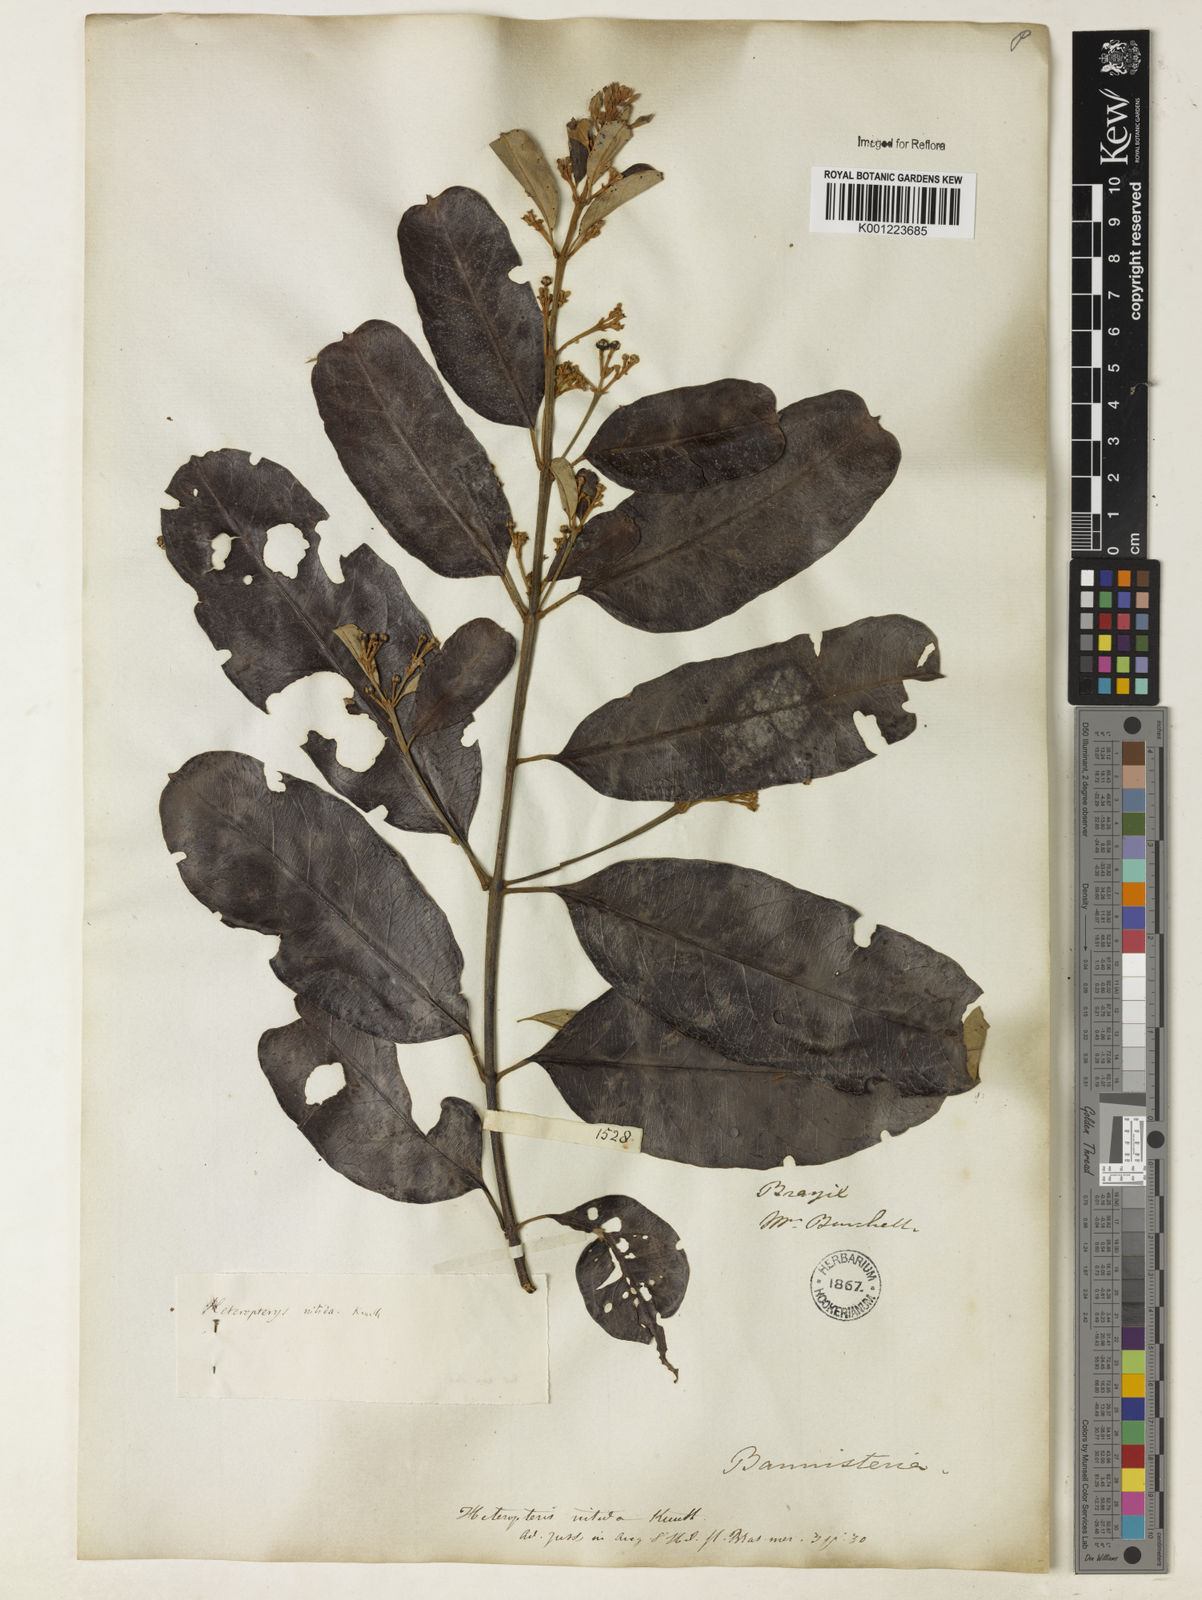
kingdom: Plantae
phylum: Tracheophyta
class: Magnoliopsida
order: Malpighiales
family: Malpighiaceae
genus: Heteropterys
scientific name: Heteropterys nitida
